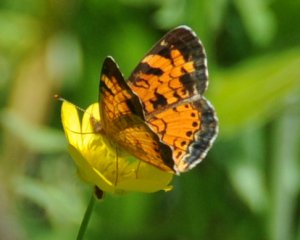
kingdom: Animalia
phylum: Arthropoda
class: Insecta
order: Lepidoptera
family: Nymphalidae
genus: Phyciodes
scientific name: Phyciodes tharos
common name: Northern Crescent
